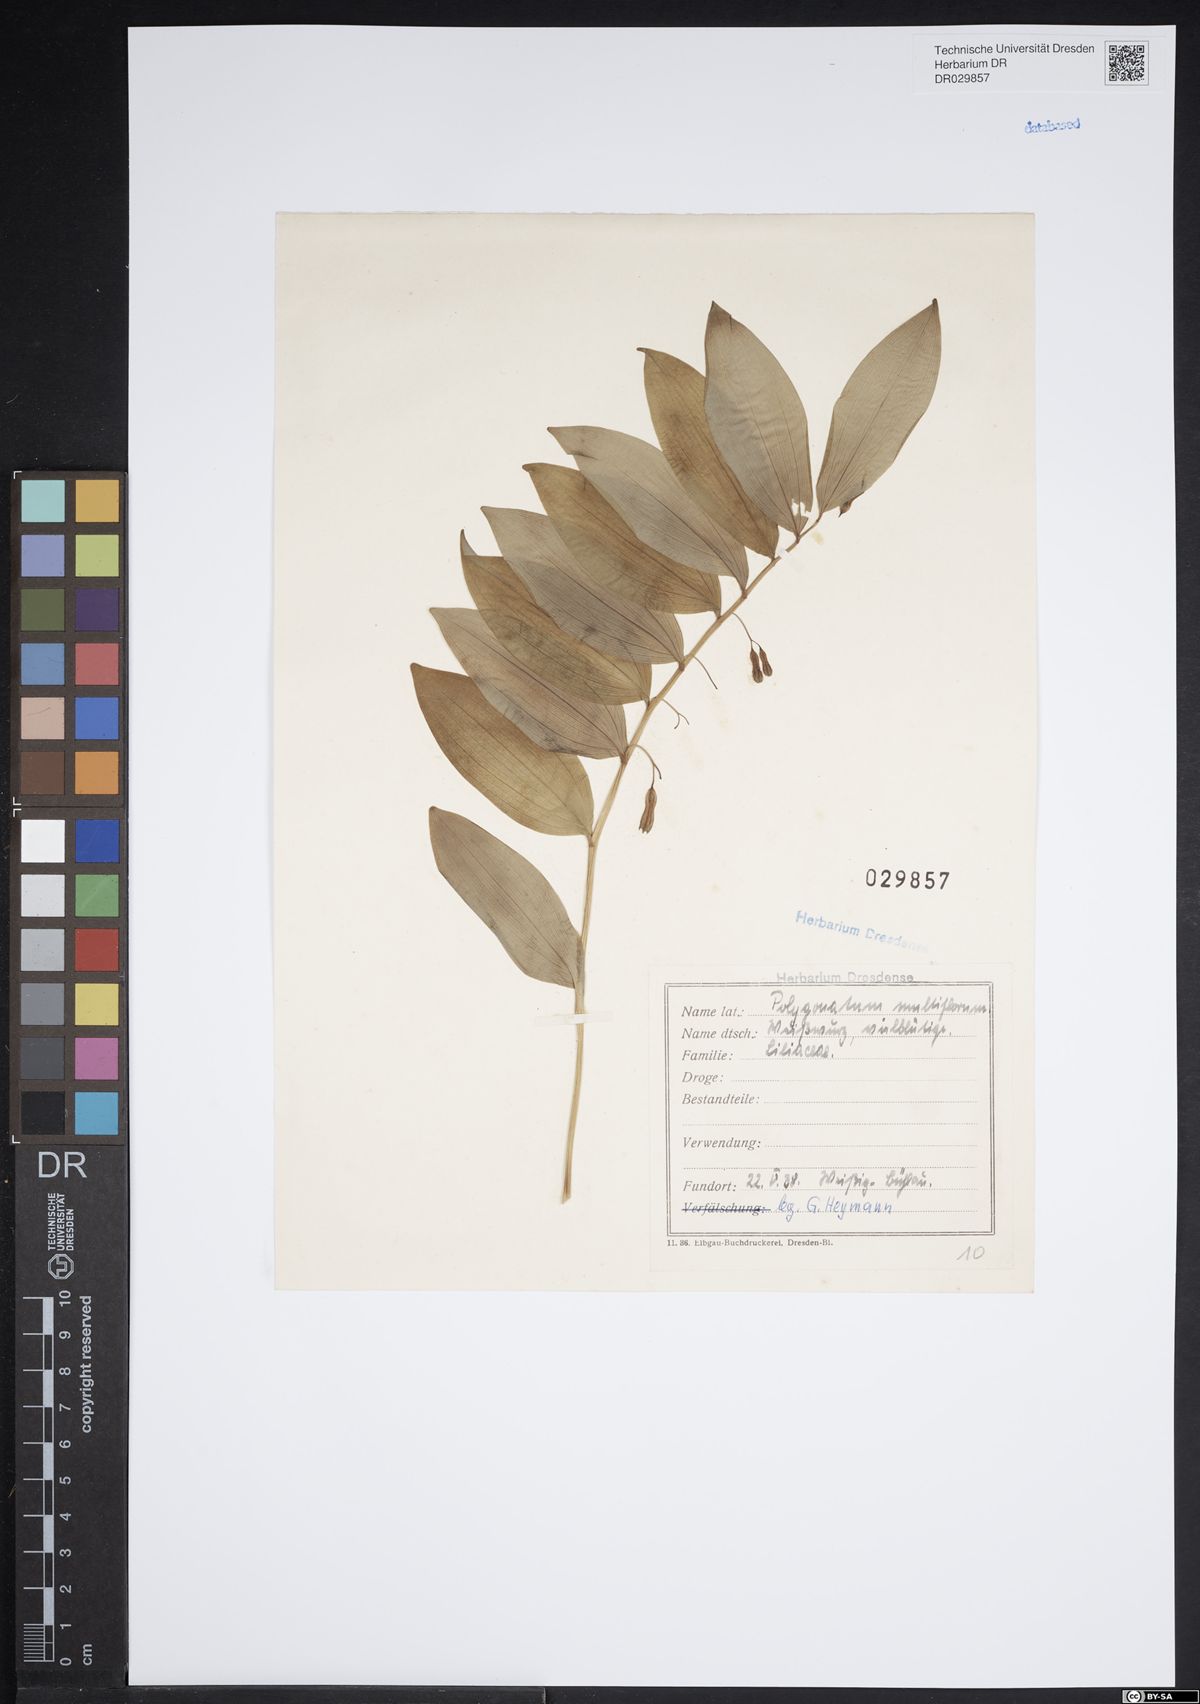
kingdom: Plantae
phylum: Tracheophyta
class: Liliopsida
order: Asparagales
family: Asparagaceae
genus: Polygonatum
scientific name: Polygonatum odoratum
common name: Angular solomon's-seal
